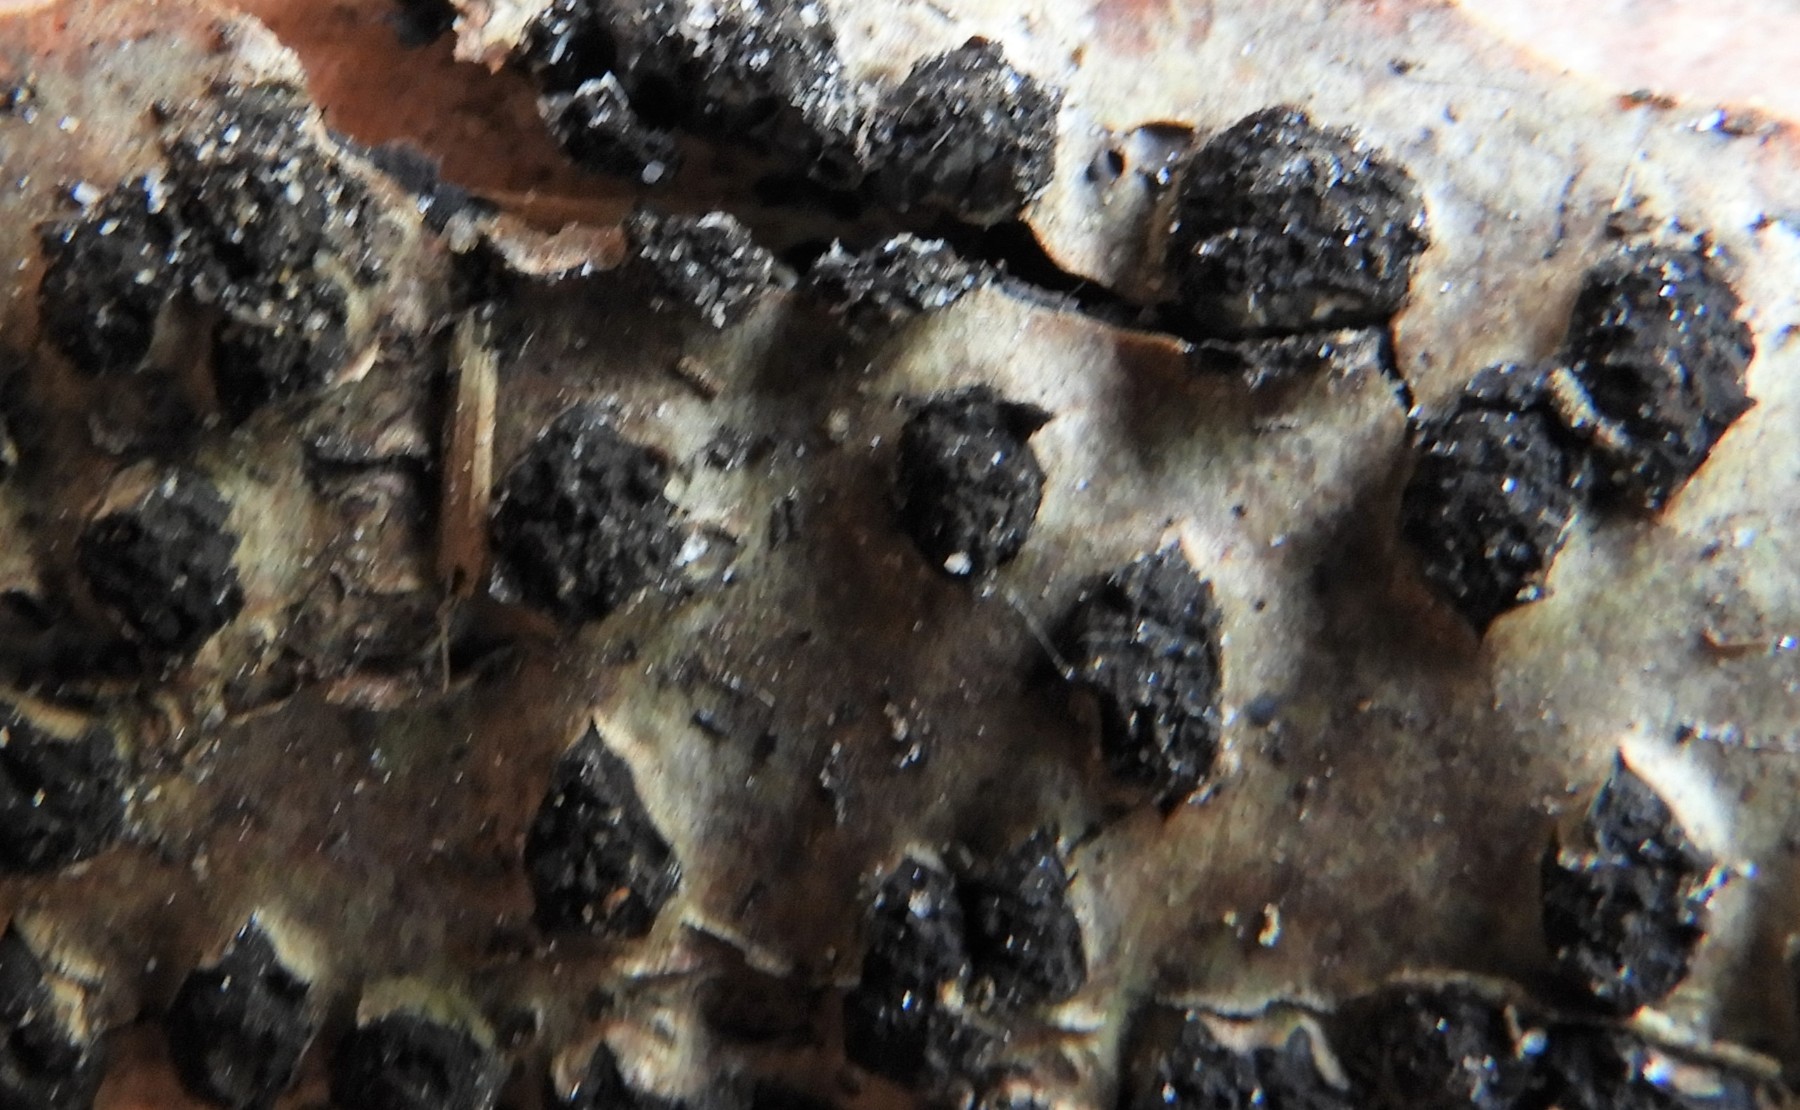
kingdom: Fungi
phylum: Ascomycota
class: Sordariomycetes
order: Xylariales
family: Diatrypaceae
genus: Diatrypella
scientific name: Diatrypella quercina
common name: ege-kulskorpe
